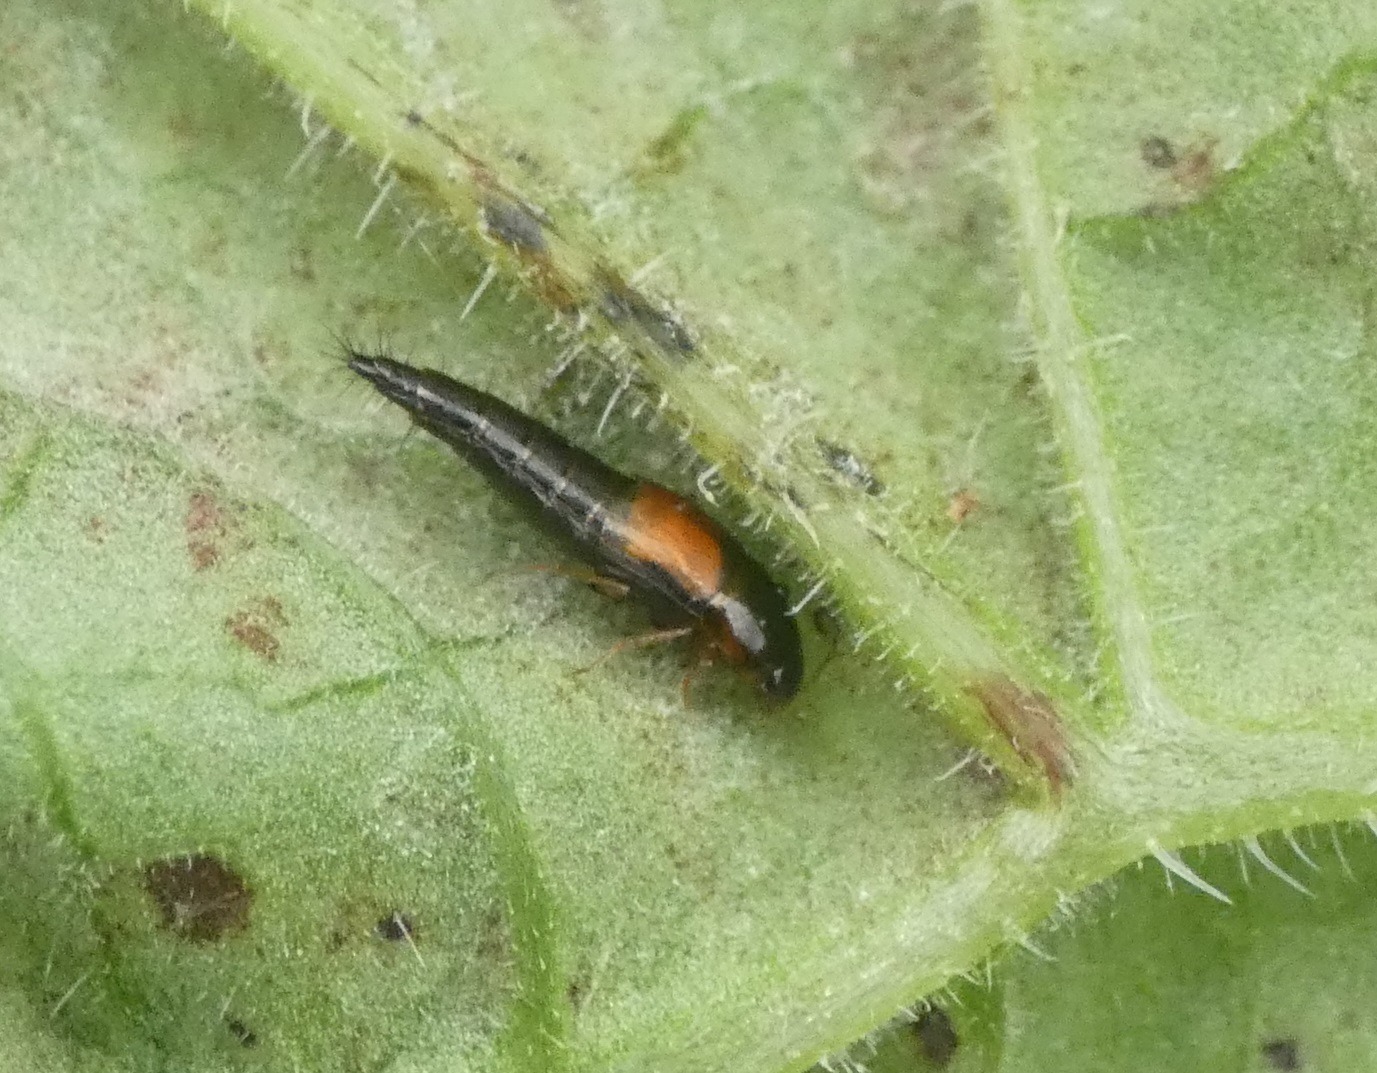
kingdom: Animalia
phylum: Arthropoda
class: Insecta
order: Coleoptera
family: Staphylinidae
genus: Tachyporus
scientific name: Tachyporus hypnorum
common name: Sortplettet agerrovbille
